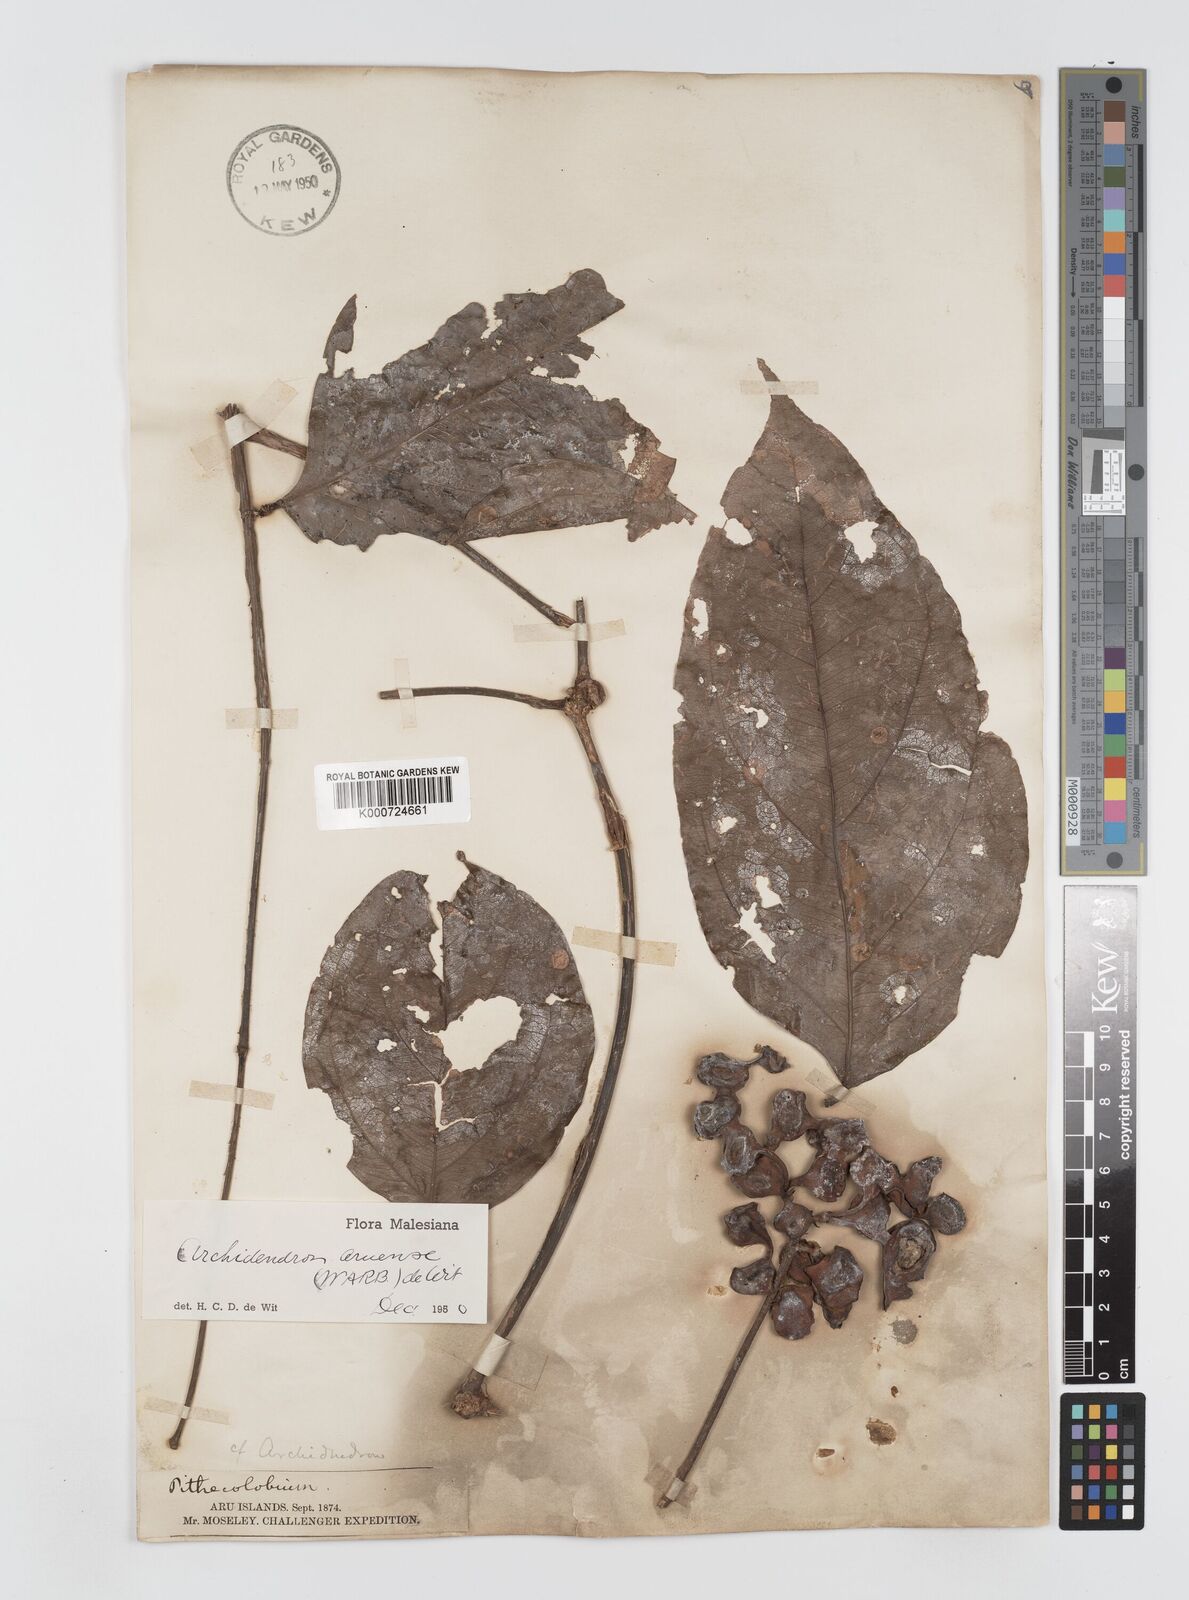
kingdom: Plantae
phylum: Tracheophyta
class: Magnoliopsida
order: Fabales
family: Fabaceae
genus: Archidendron
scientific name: Archidendron aruense
